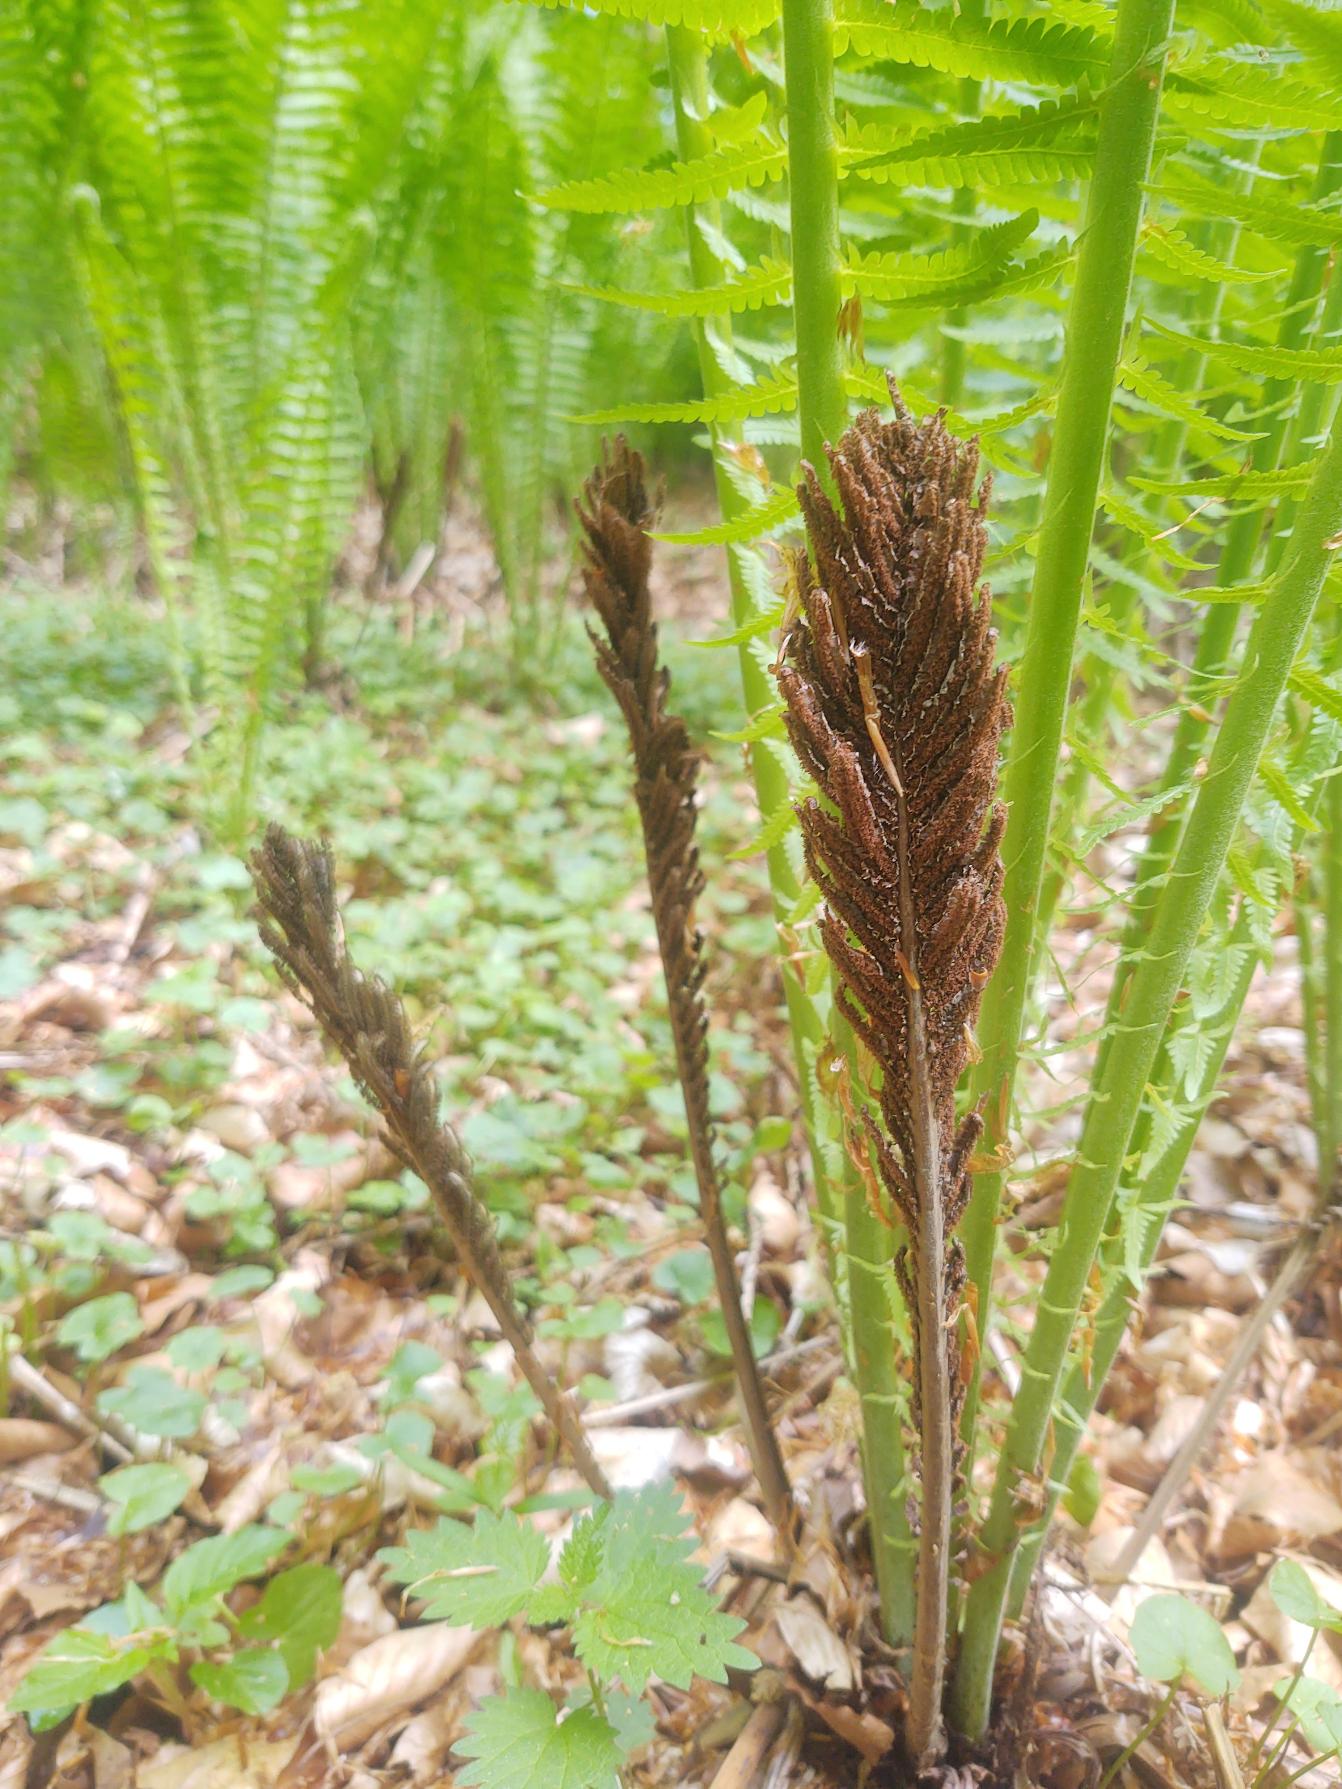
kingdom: Plantae
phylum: Tracheophyta
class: Polypodiopsida
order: Polypodiales
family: Onocleaceae
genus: Matteuccia
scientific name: Matteuccia struthiopteris
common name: Strudsvinge
